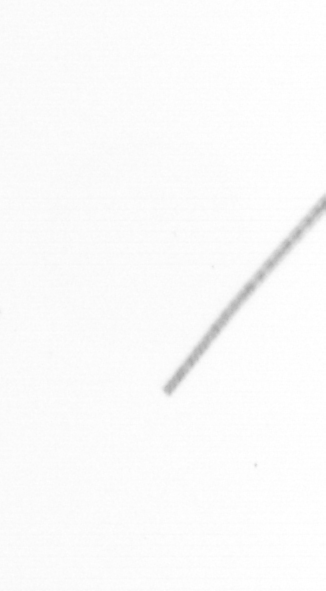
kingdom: Chromista
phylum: Ochrophyta
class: Bacillariophyceae
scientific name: Bacillariophyceae
